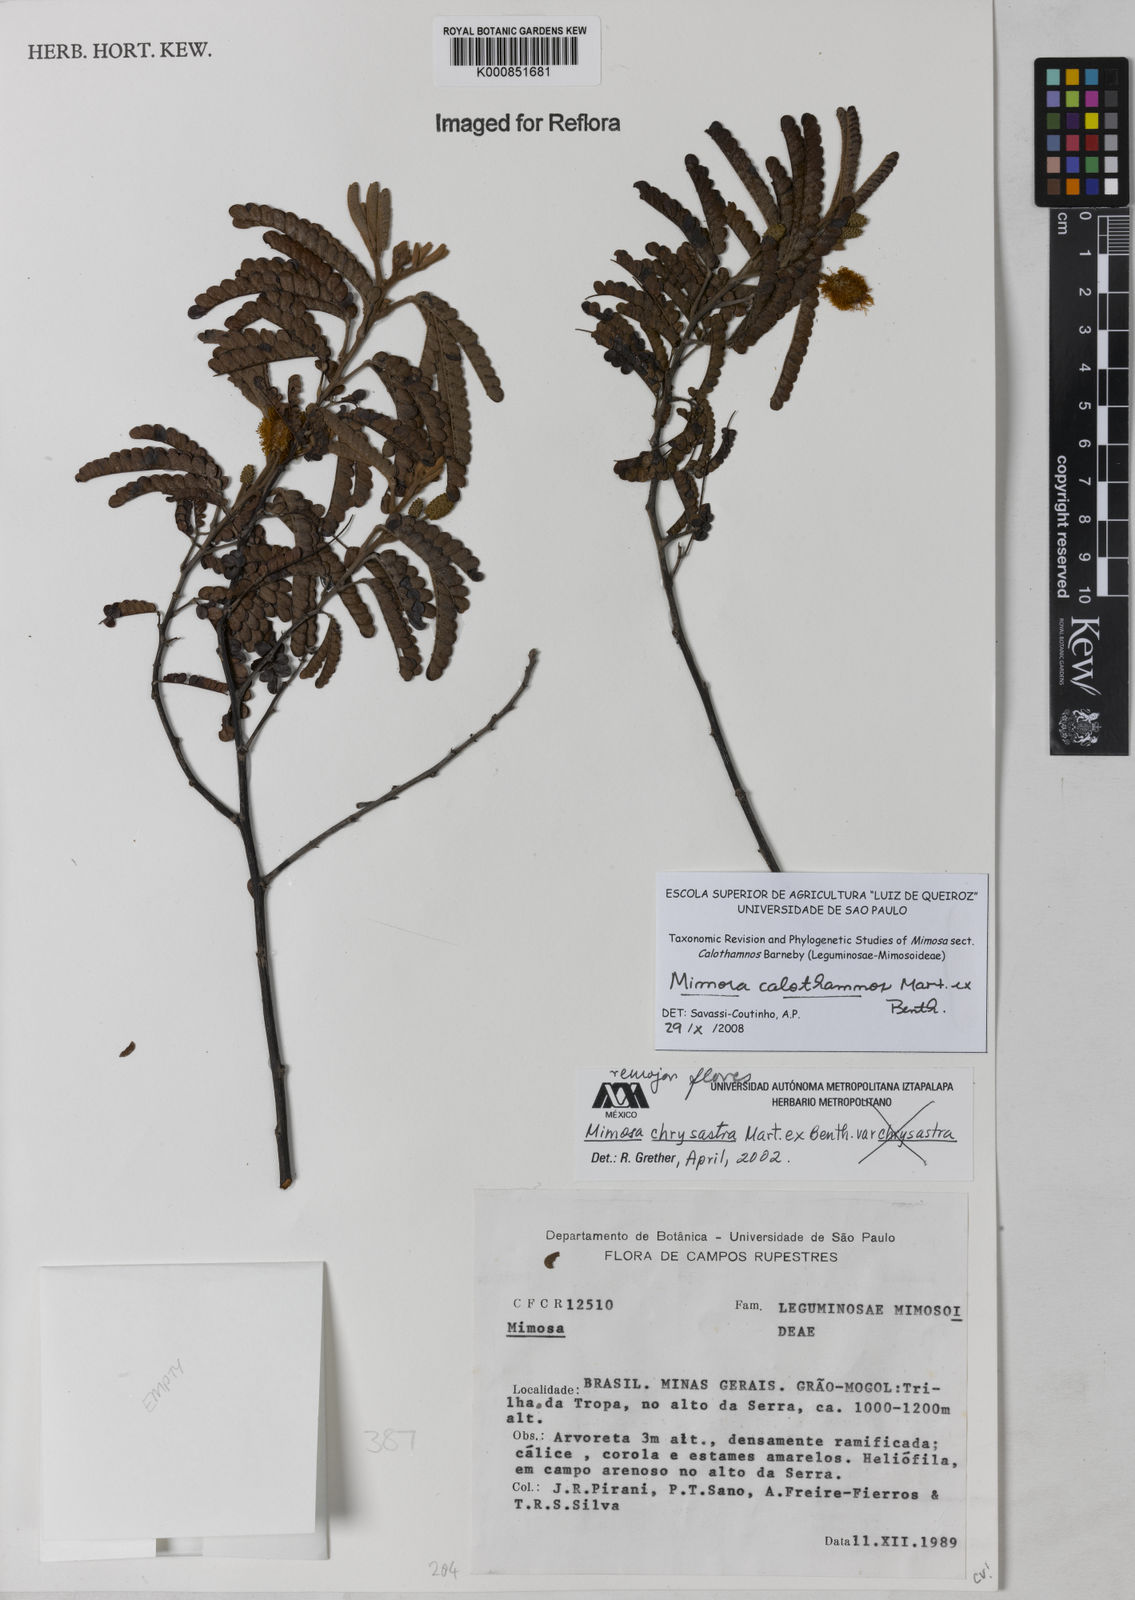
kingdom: Plantae
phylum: Tracheophyta
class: Magnoliopsida
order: Fabales
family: Fabaceae
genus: Mimosa
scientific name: Mimosa aurivillus
